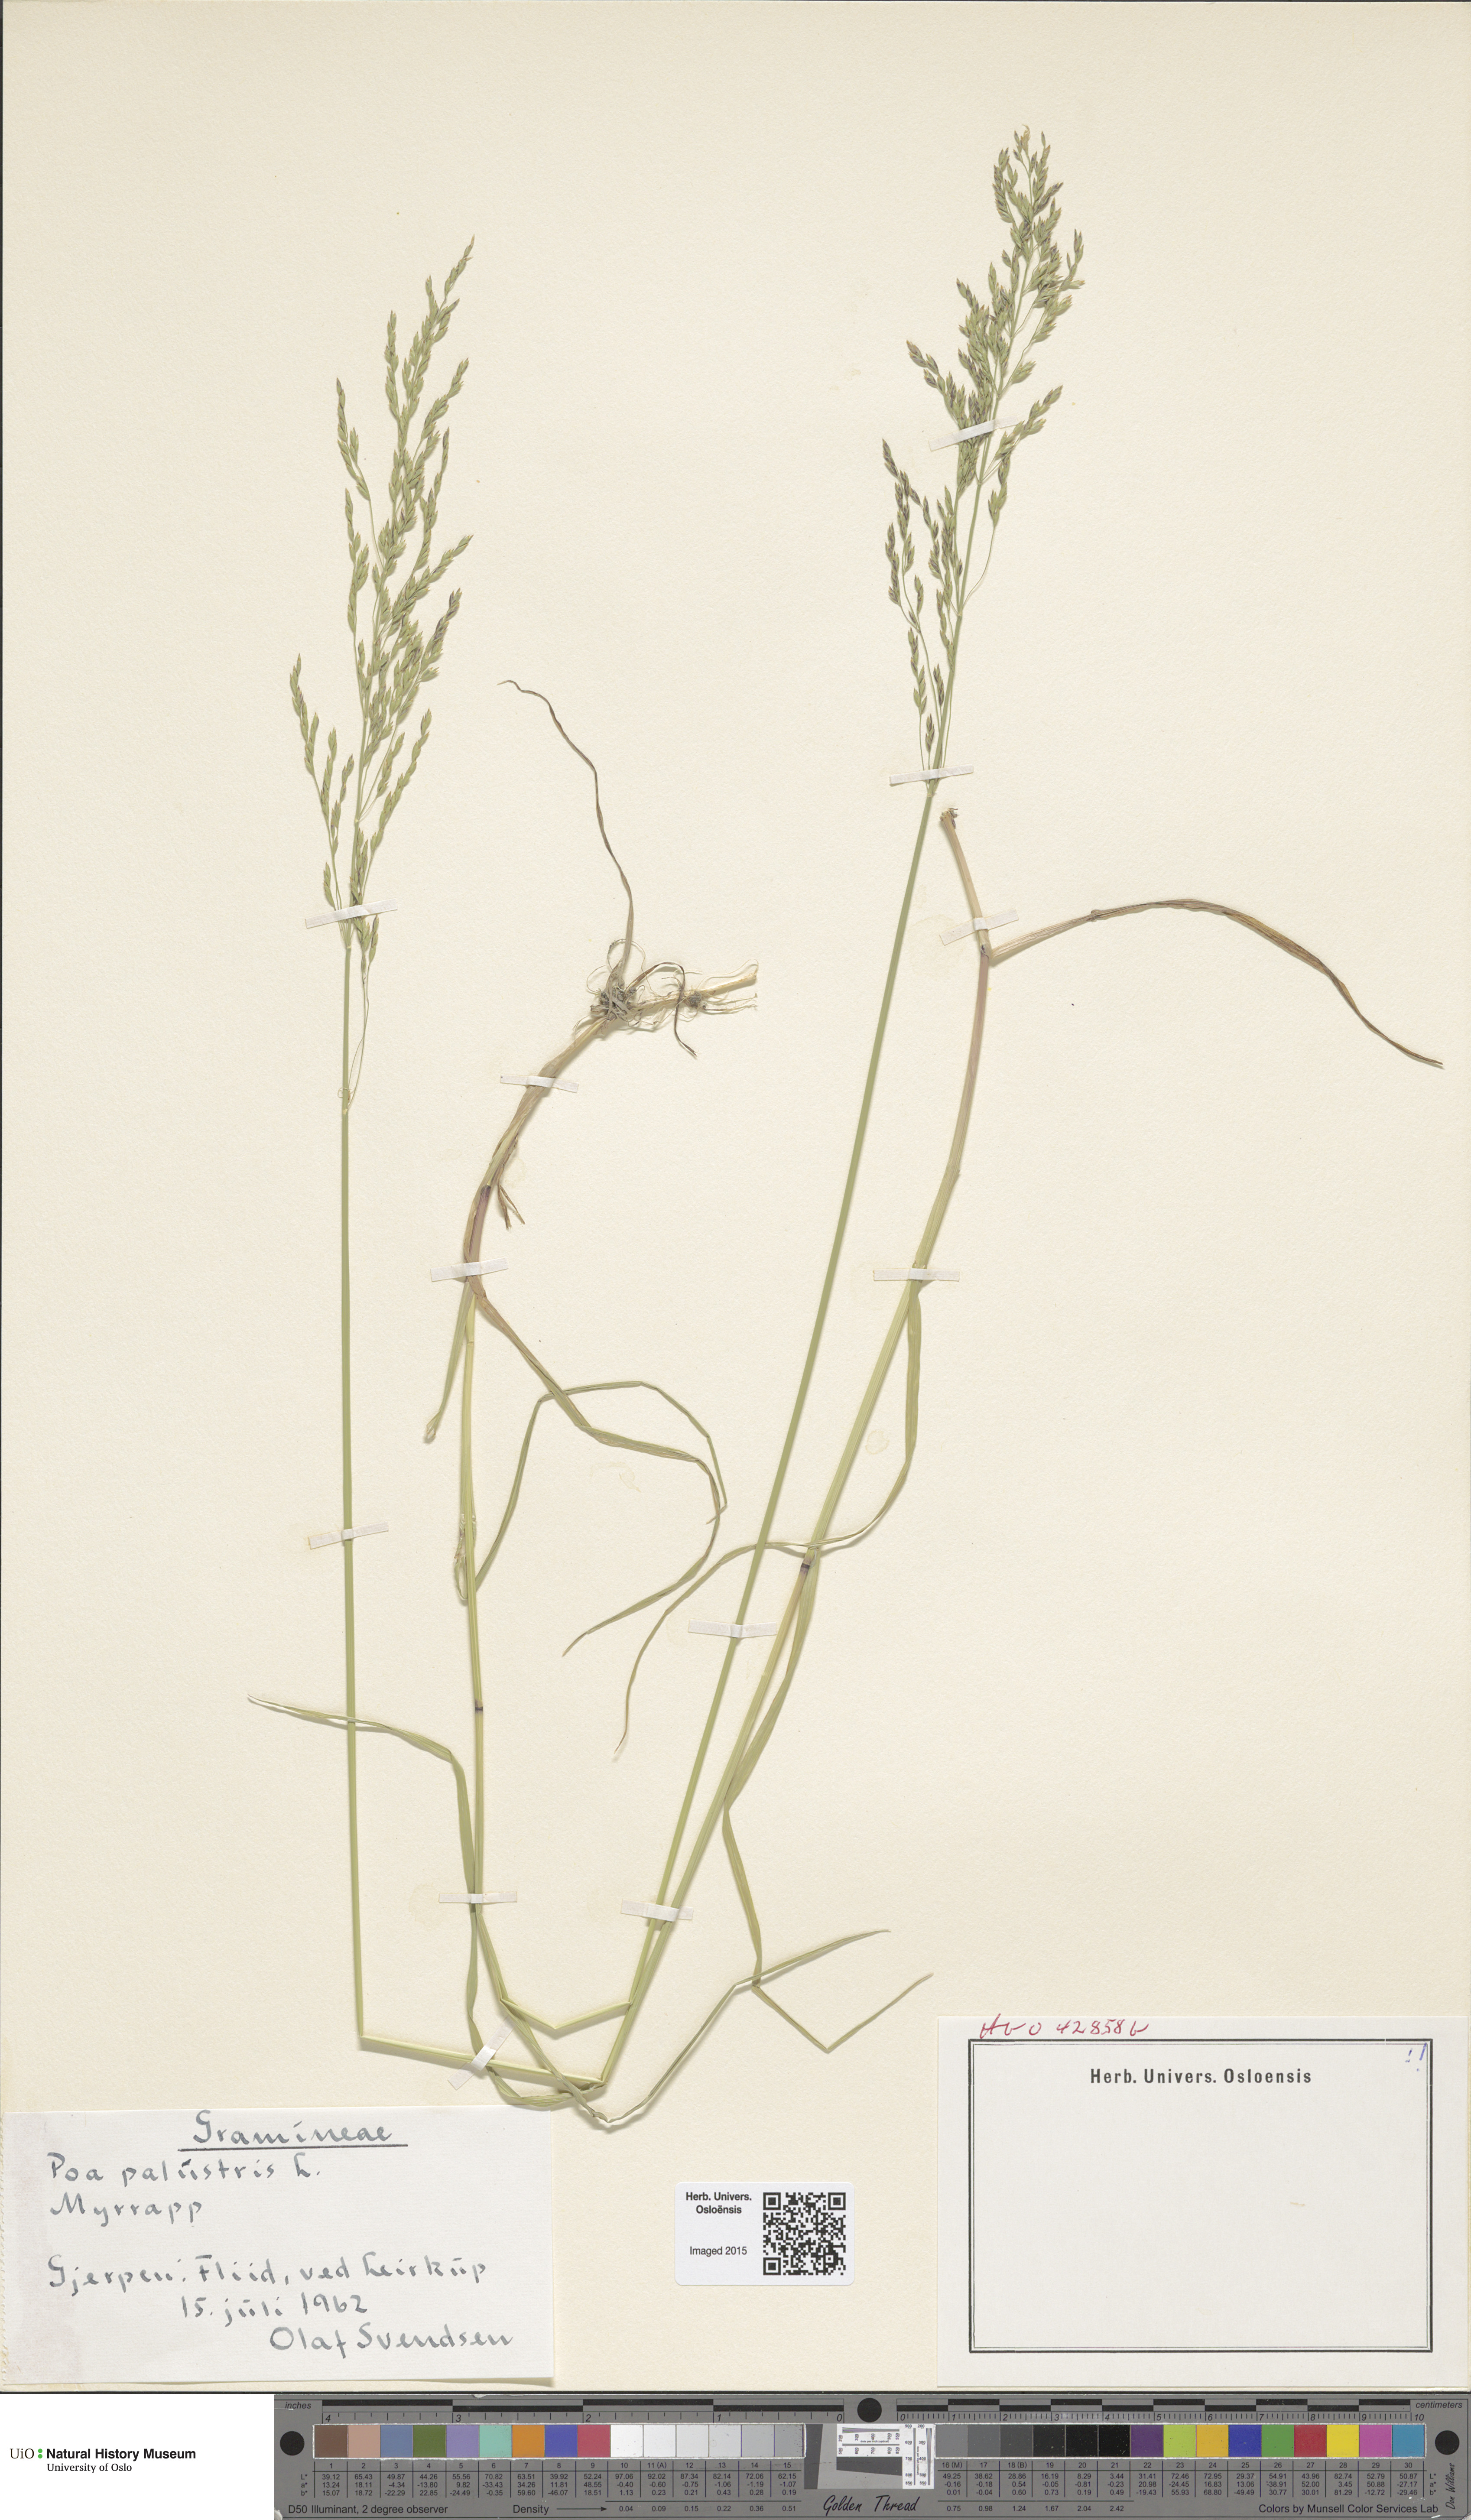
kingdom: Plantae
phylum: Tracheophyta
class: Liliopsida
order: Poales
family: Poaceae
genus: Poa
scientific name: Poa palustris
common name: Swamp meadow-grass
